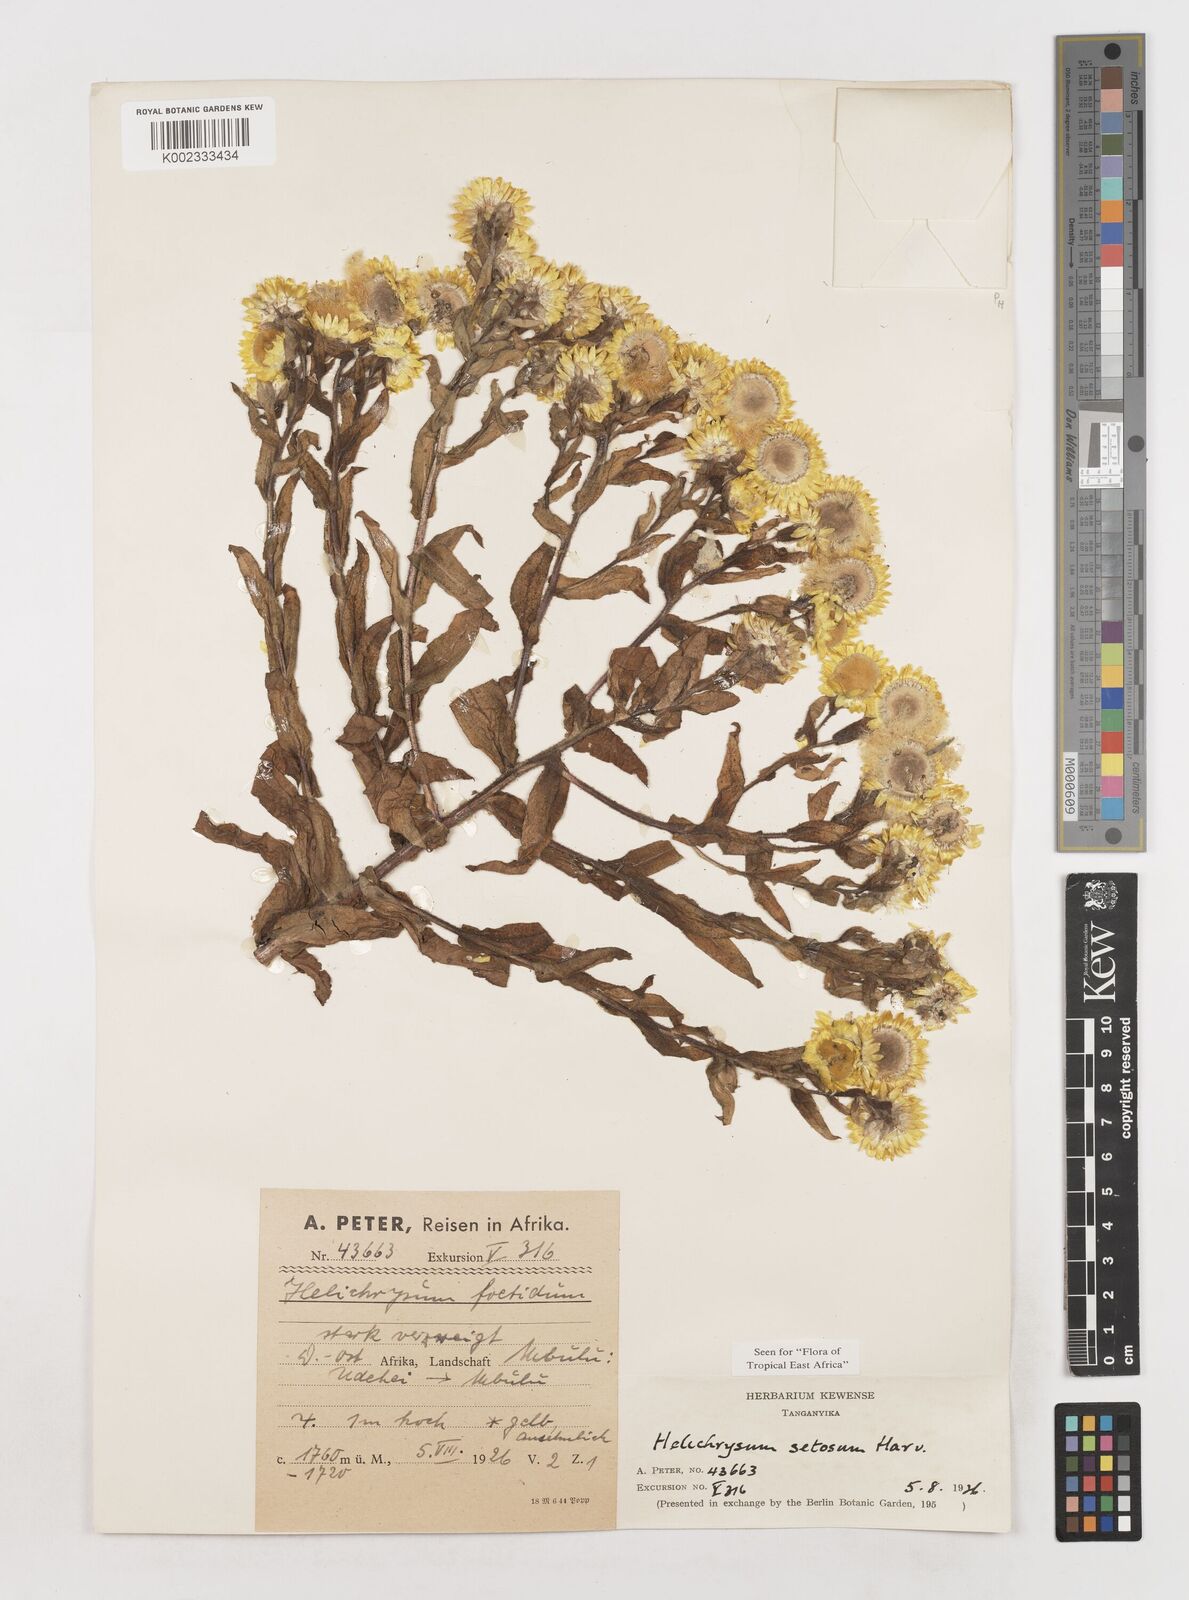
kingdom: Plantae
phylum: Tracheophyta
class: Magnoliopsida
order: Asterales
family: Asteraceae
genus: Helichrysum
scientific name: Helichrysum setosum
